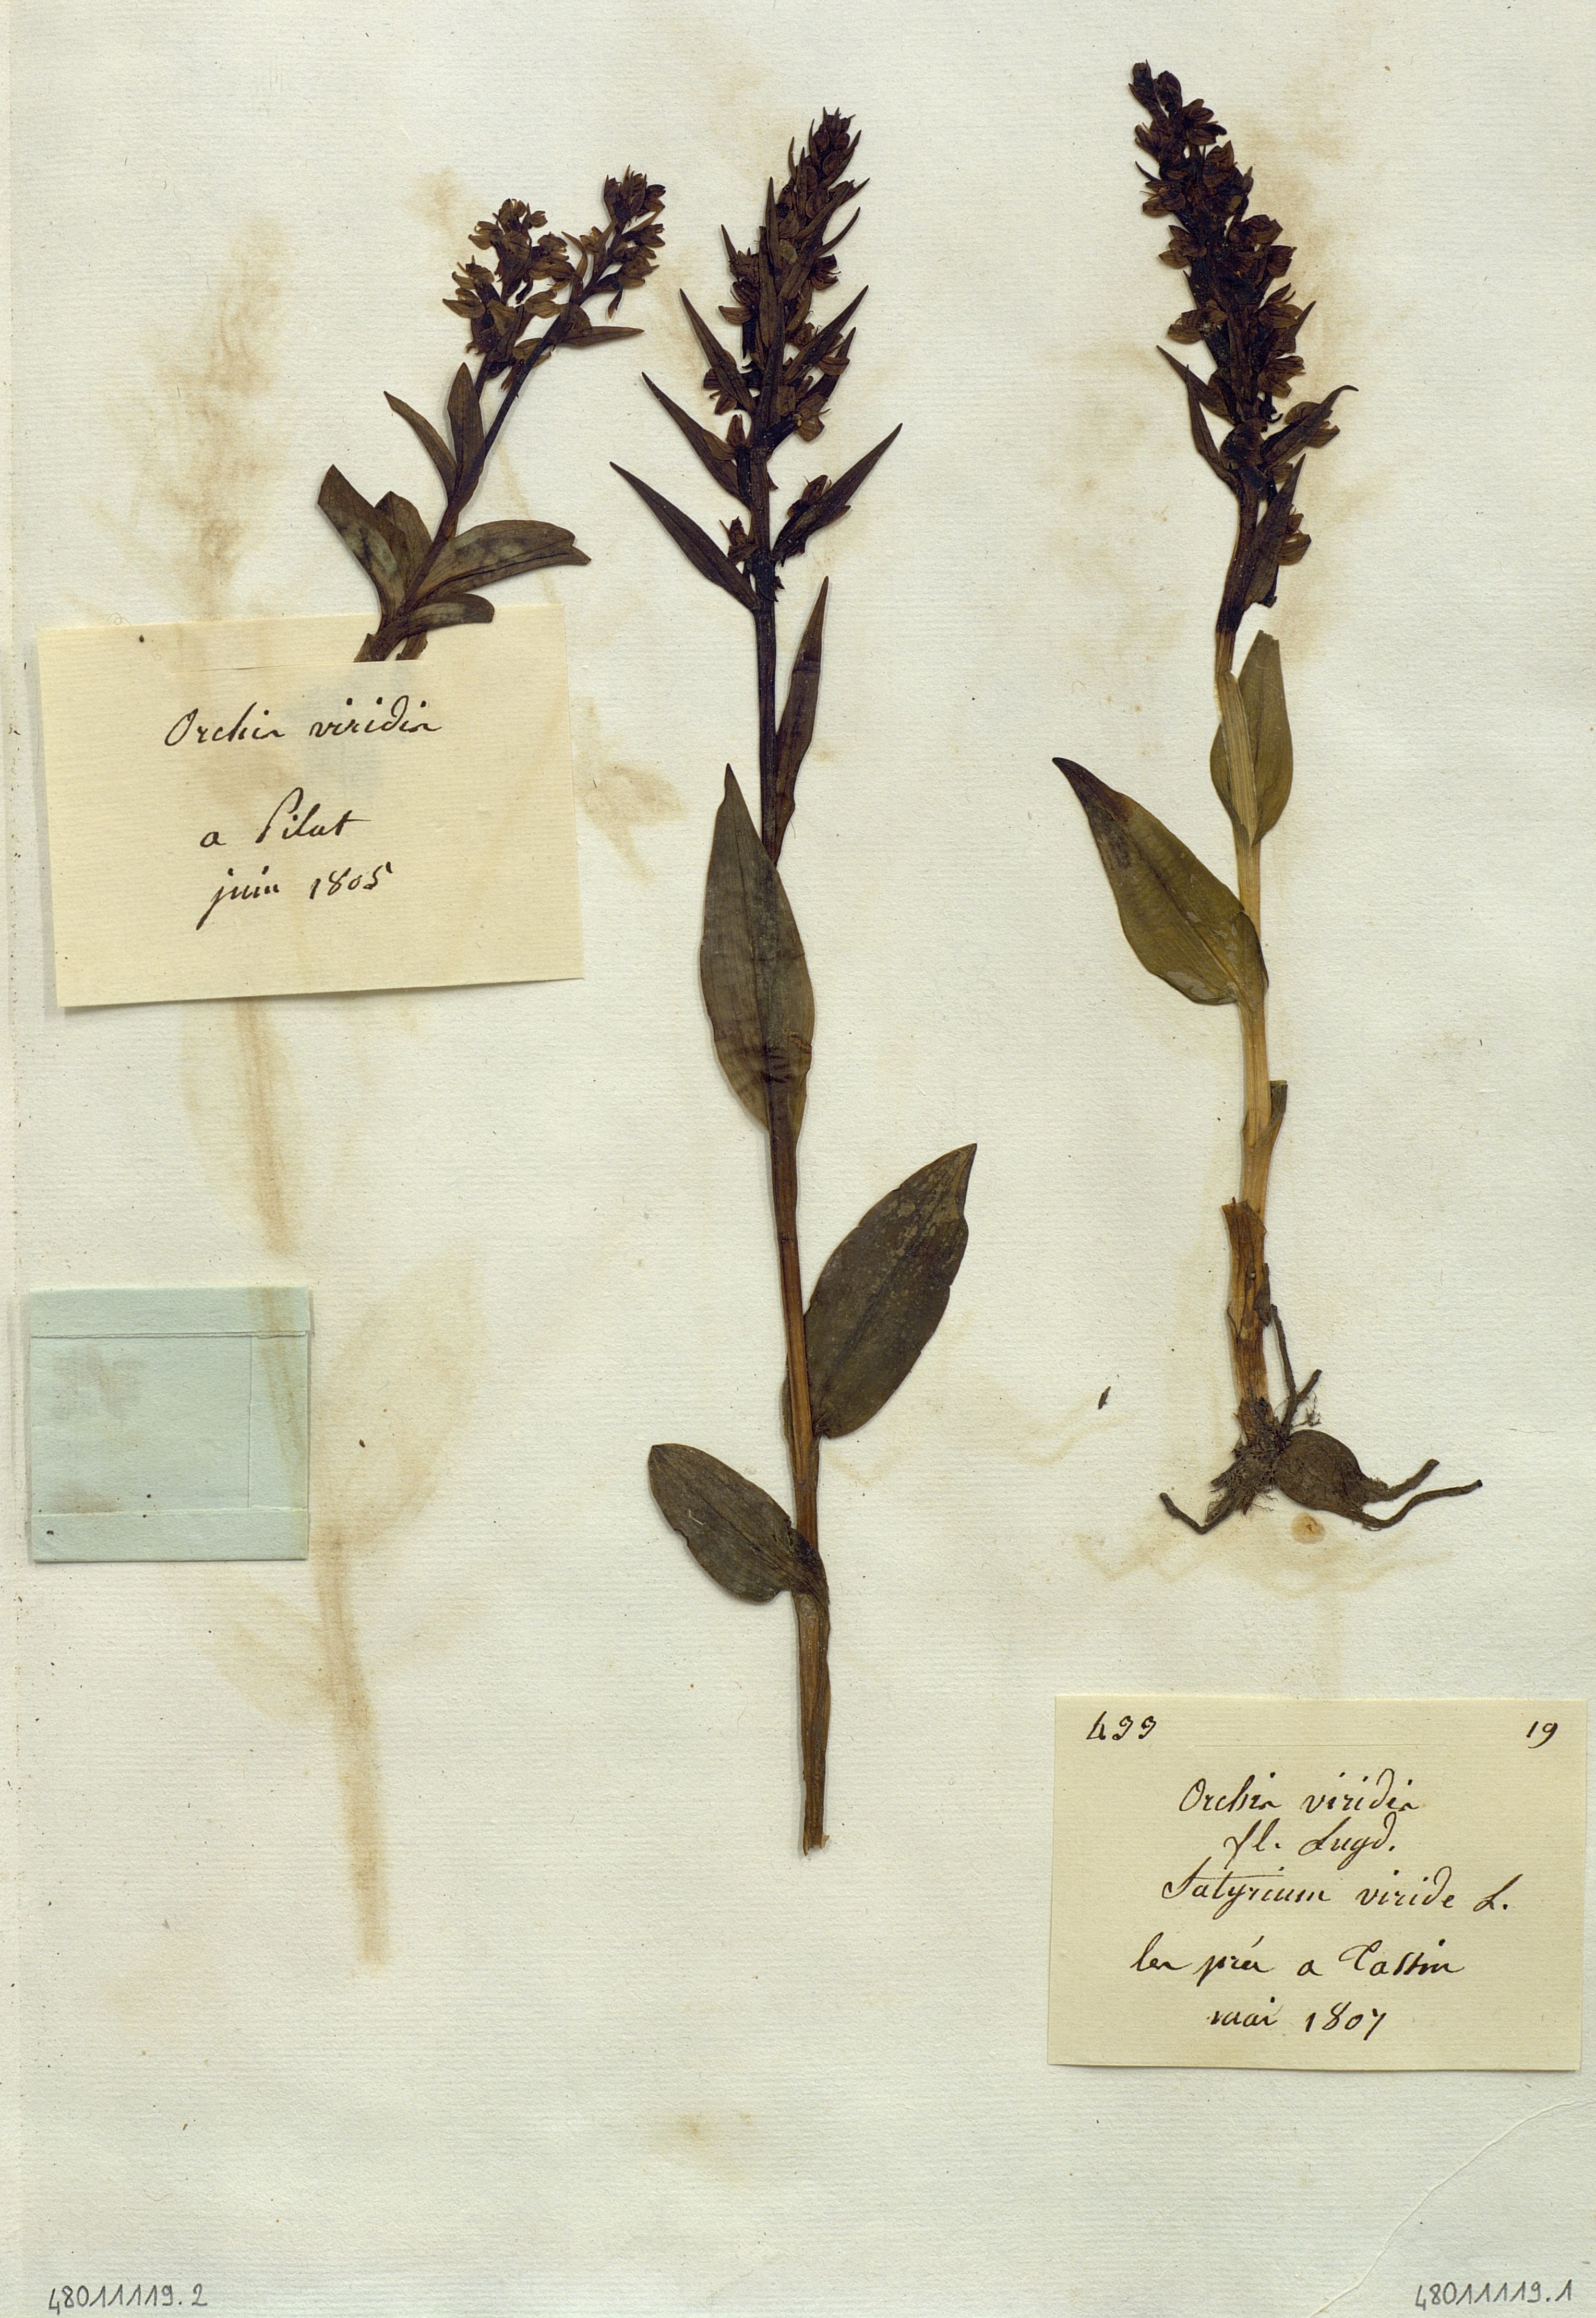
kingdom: Plantae
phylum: Tracheophyta
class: Liliopsida
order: Asparagales
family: Orchidaceae
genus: Dactylorhiza
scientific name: Dactylorhiza viridis
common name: Longbract frog orchid
